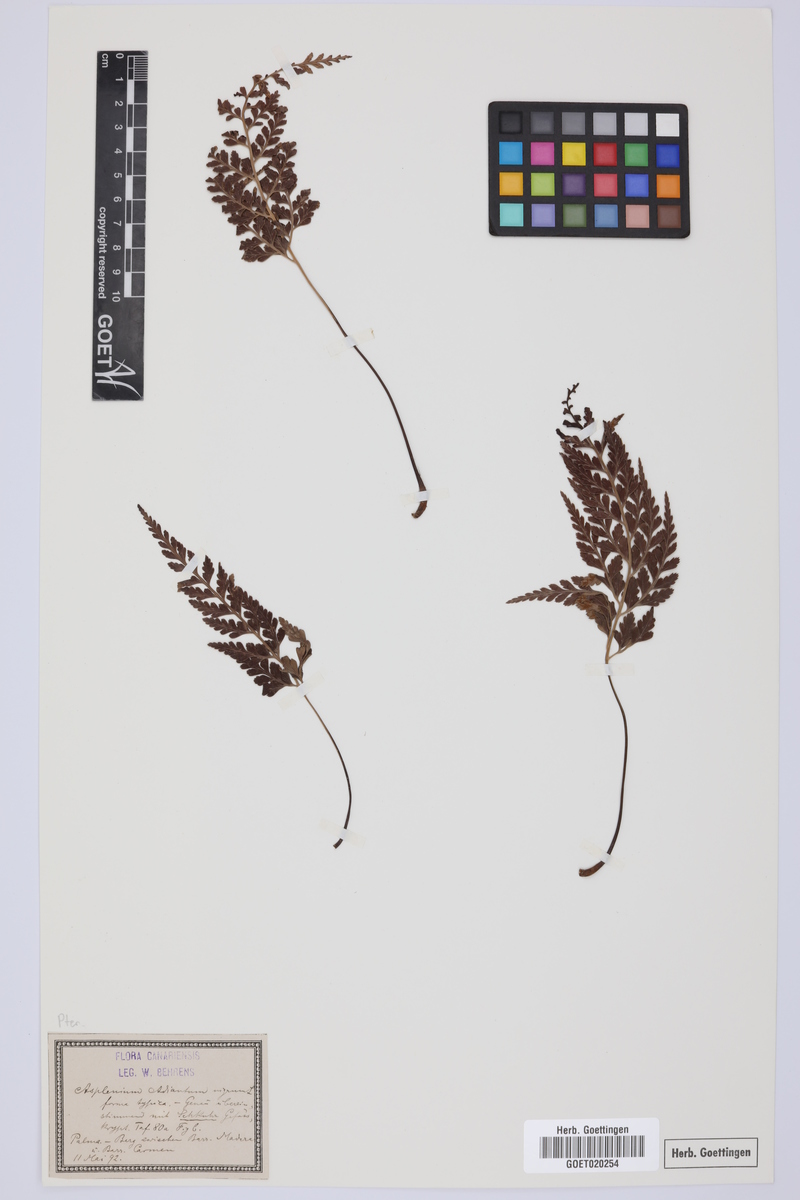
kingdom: Plantae
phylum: Tracheophyta
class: Polypodiopsida
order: Polypodiales
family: Aspleniaceae
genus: Asplenium
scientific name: Asplenium adiantum-nigrum
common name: Black spleenwort
